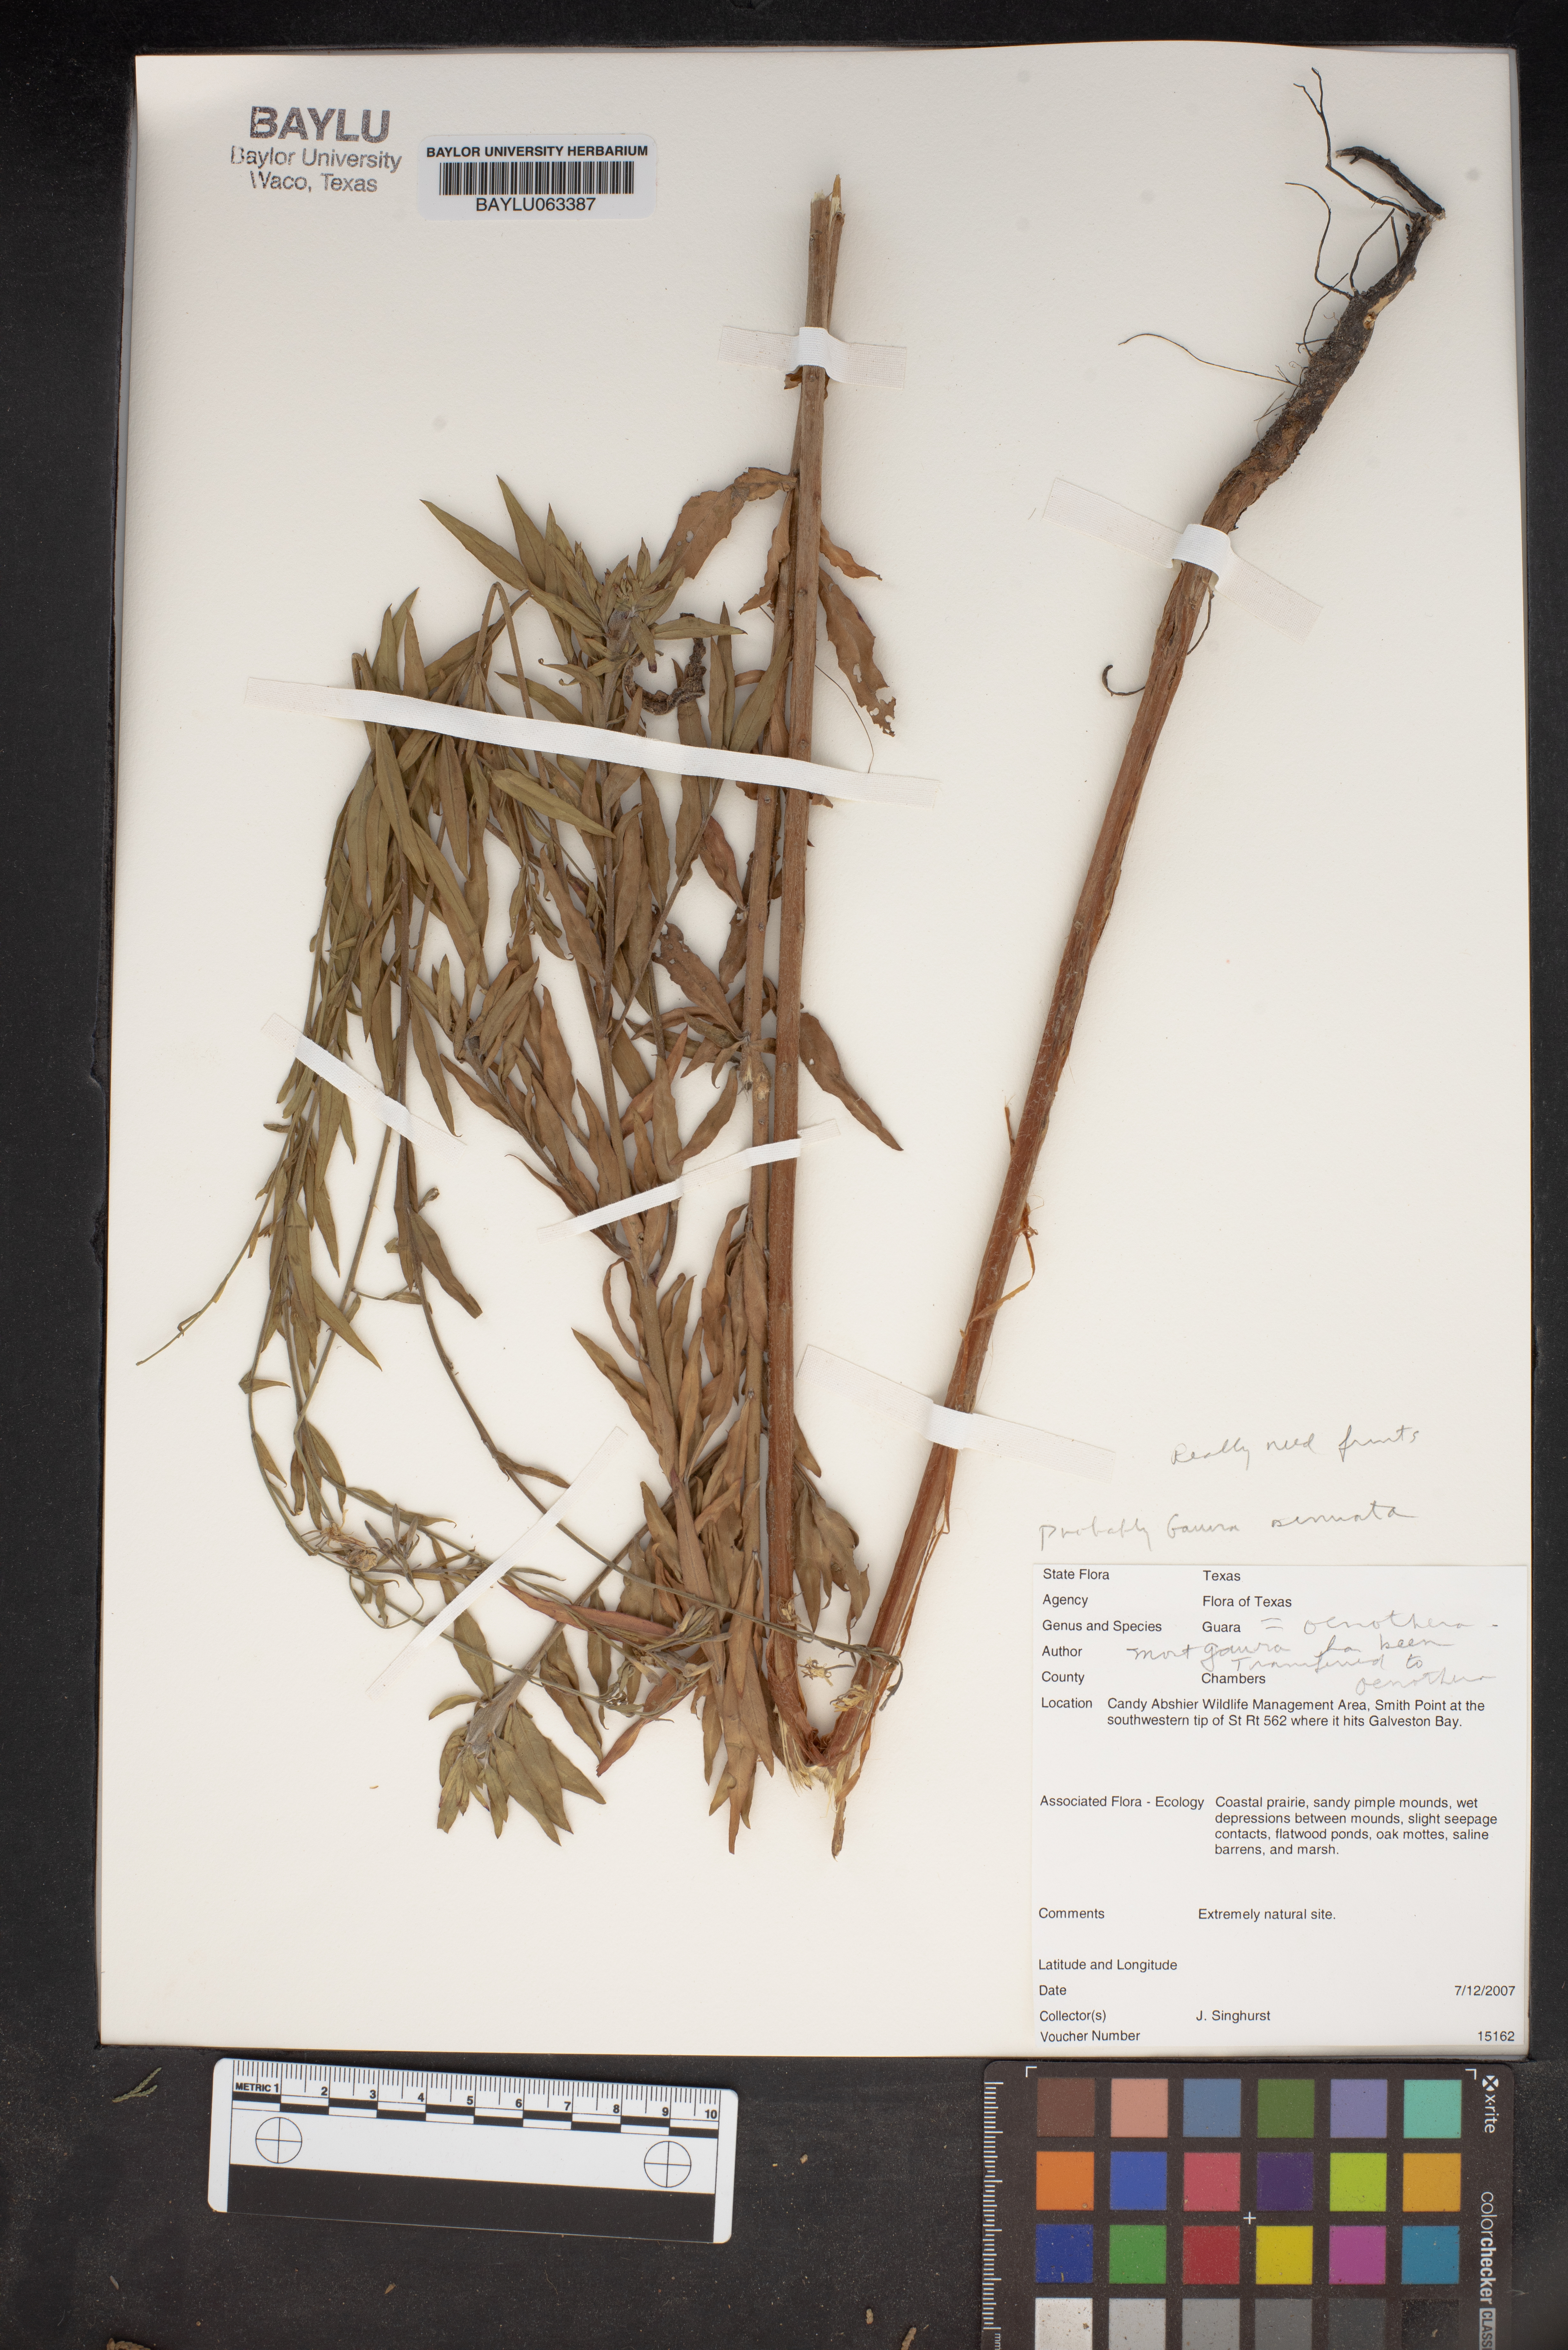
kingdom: Animalia
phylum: Arthropoda
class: Insecta
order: Lepidoptera
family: Geometridae
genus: Guara
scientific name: Guara
